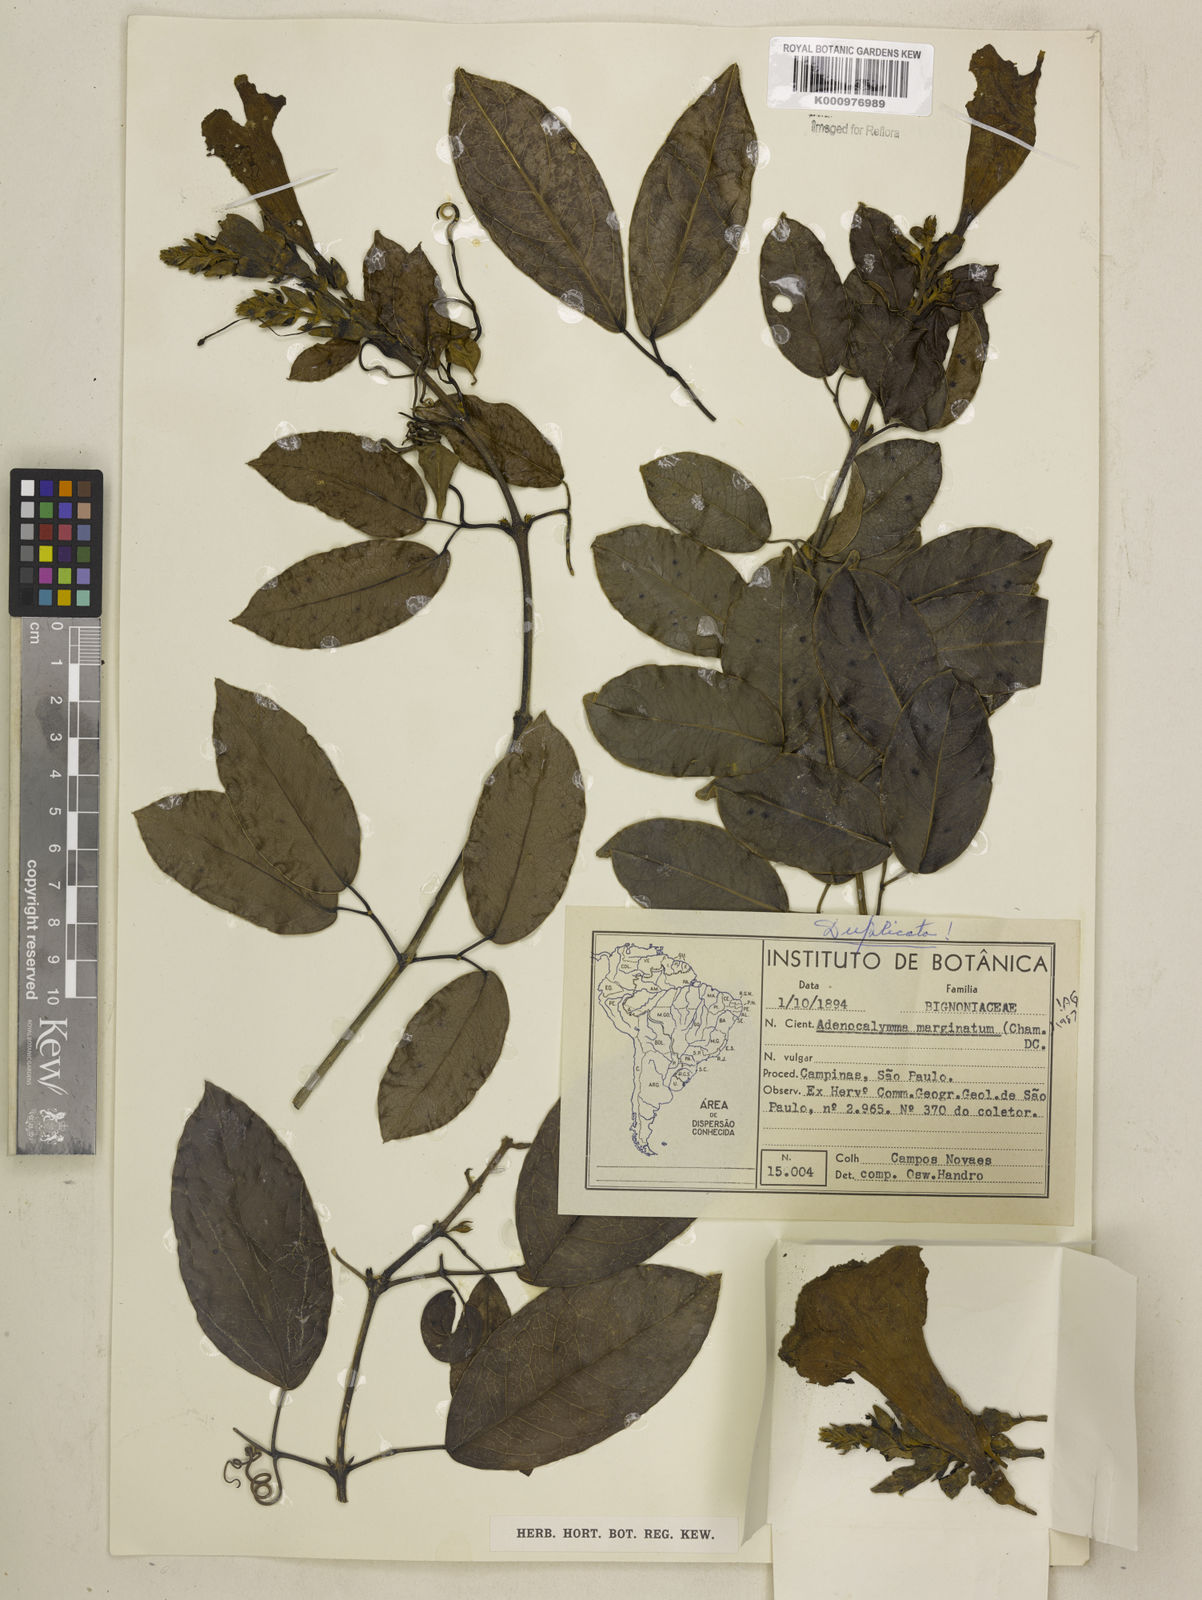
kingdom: Plantae
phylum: Tracheophyta
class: Magnoliopsida
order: Lamiales
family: Bignoniaceae
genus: Adenocalymma
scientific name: Adenocalymma marginatum
